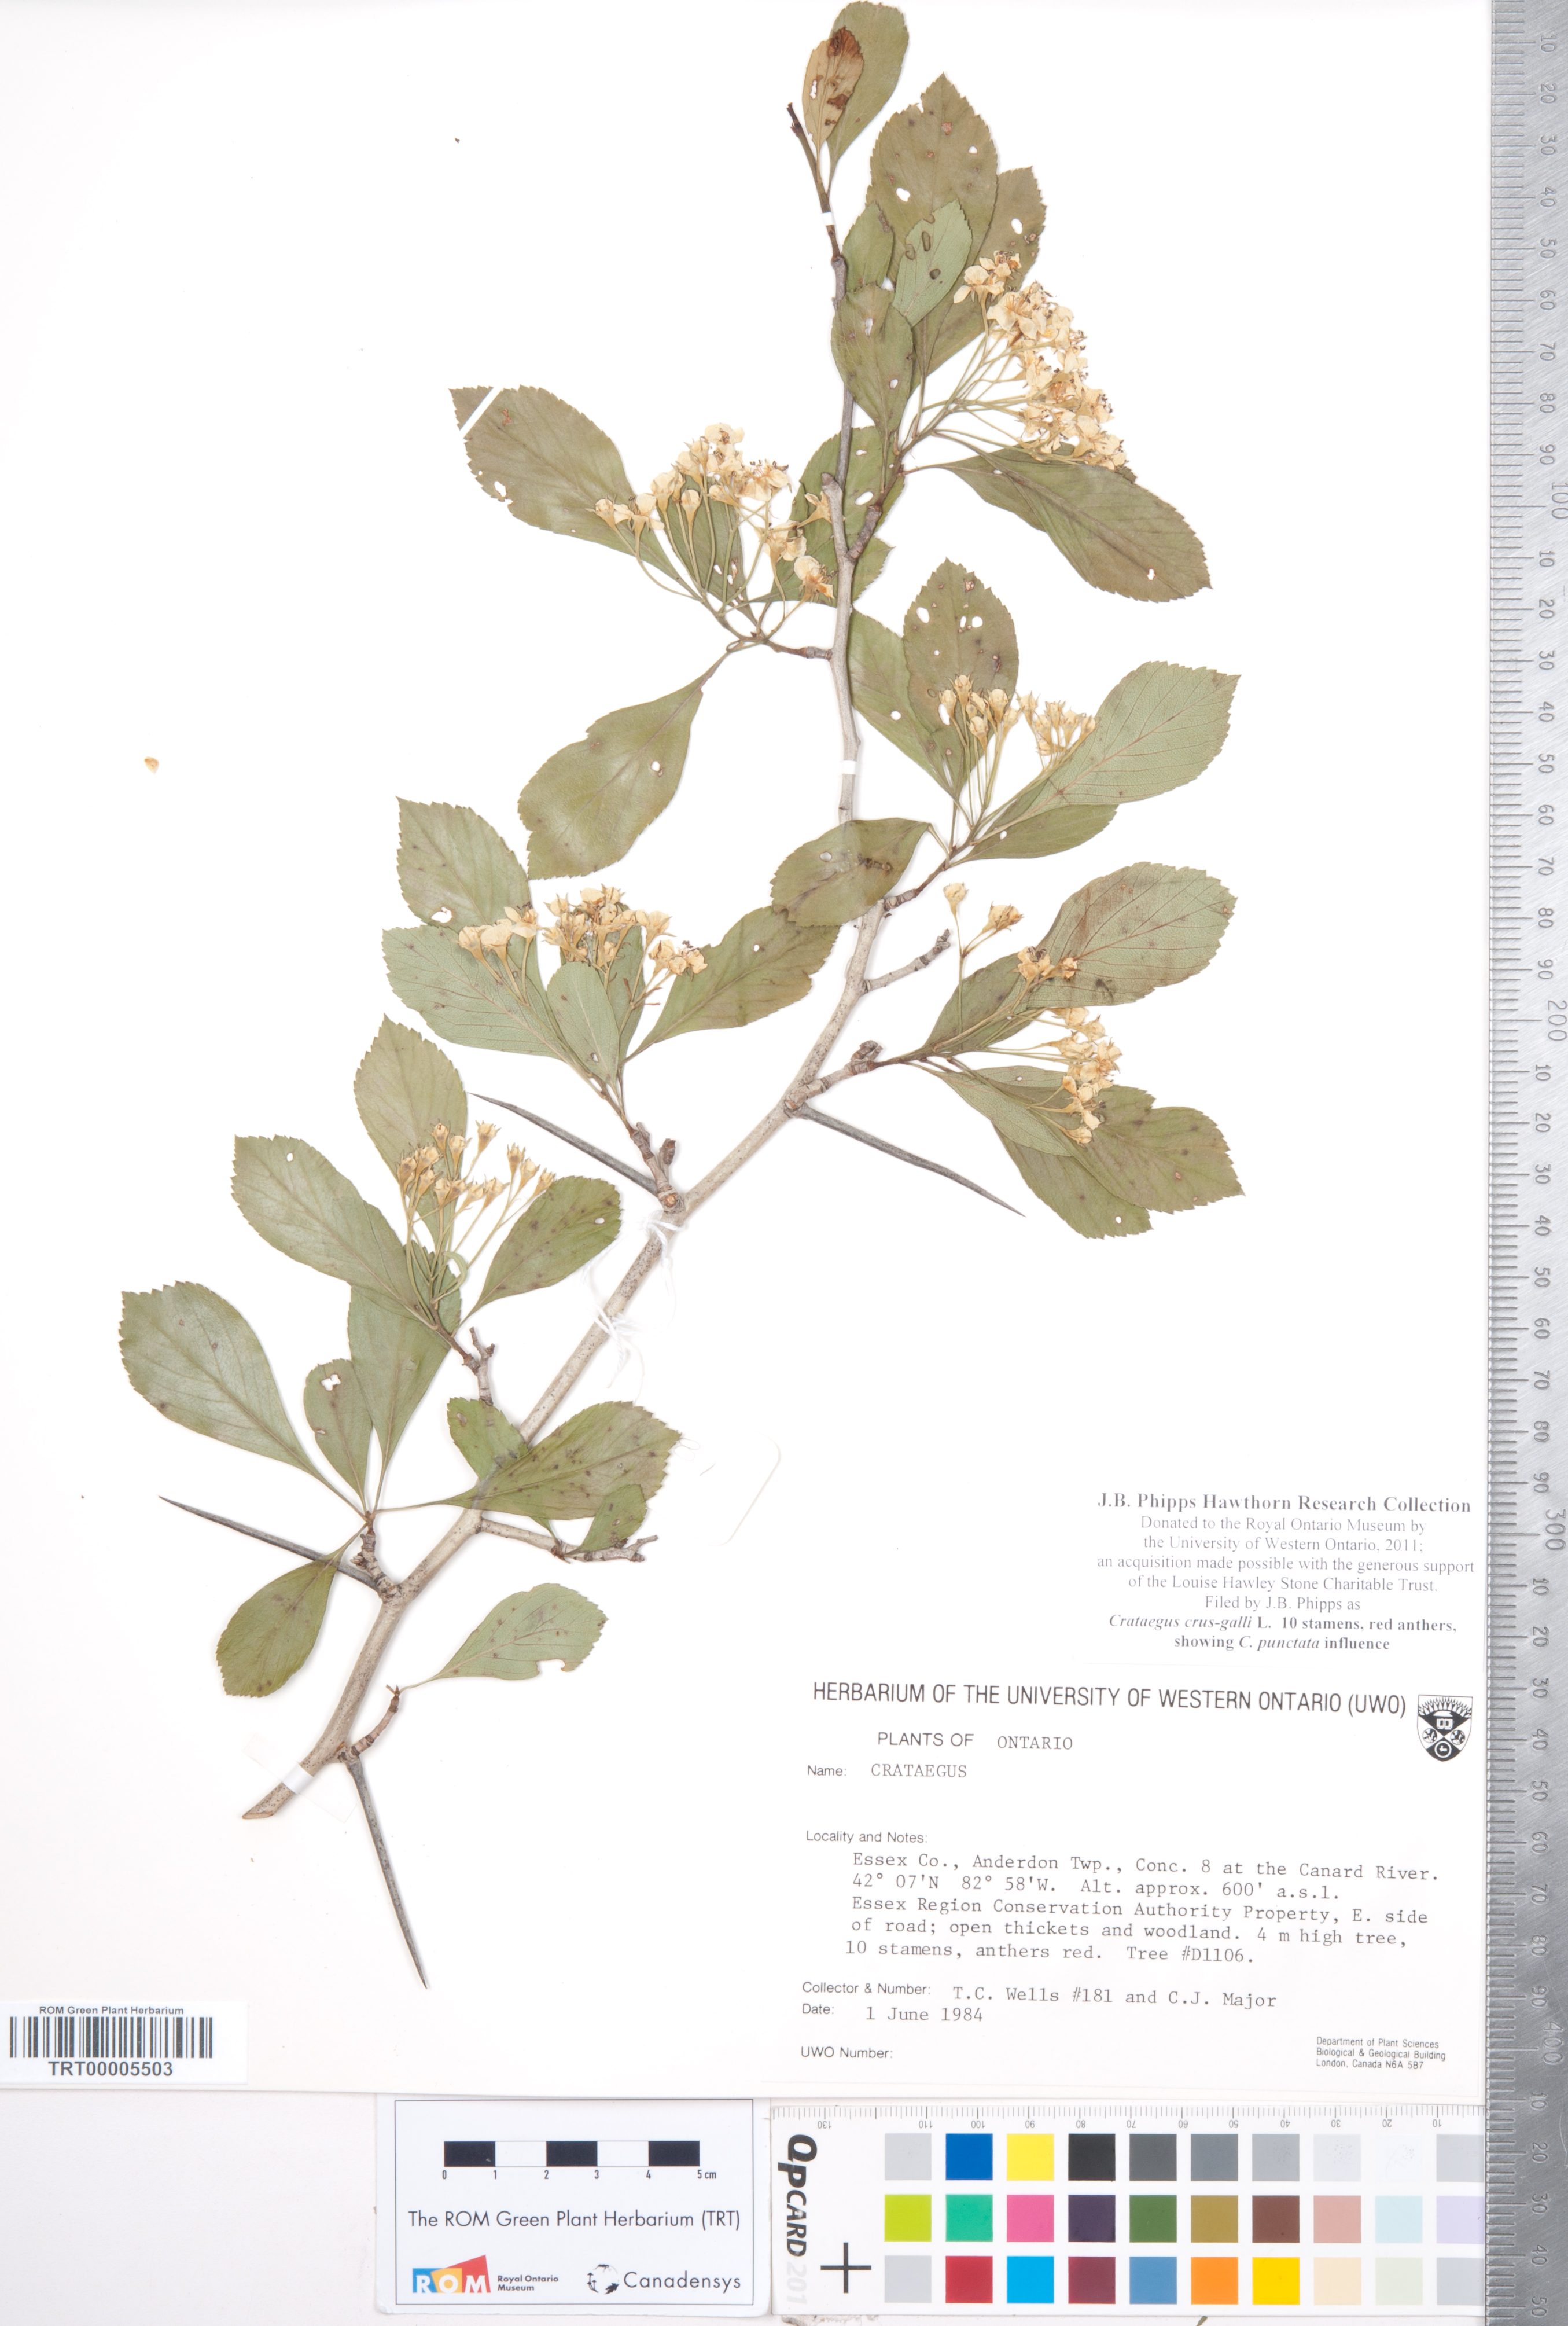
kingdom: Plantae
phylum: Tracheophyta
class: Magnoliopsida
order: Rosales
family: Rosaceae
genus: Crataegus
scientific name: Crataegus crus-galli
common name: Cockspurthorn
